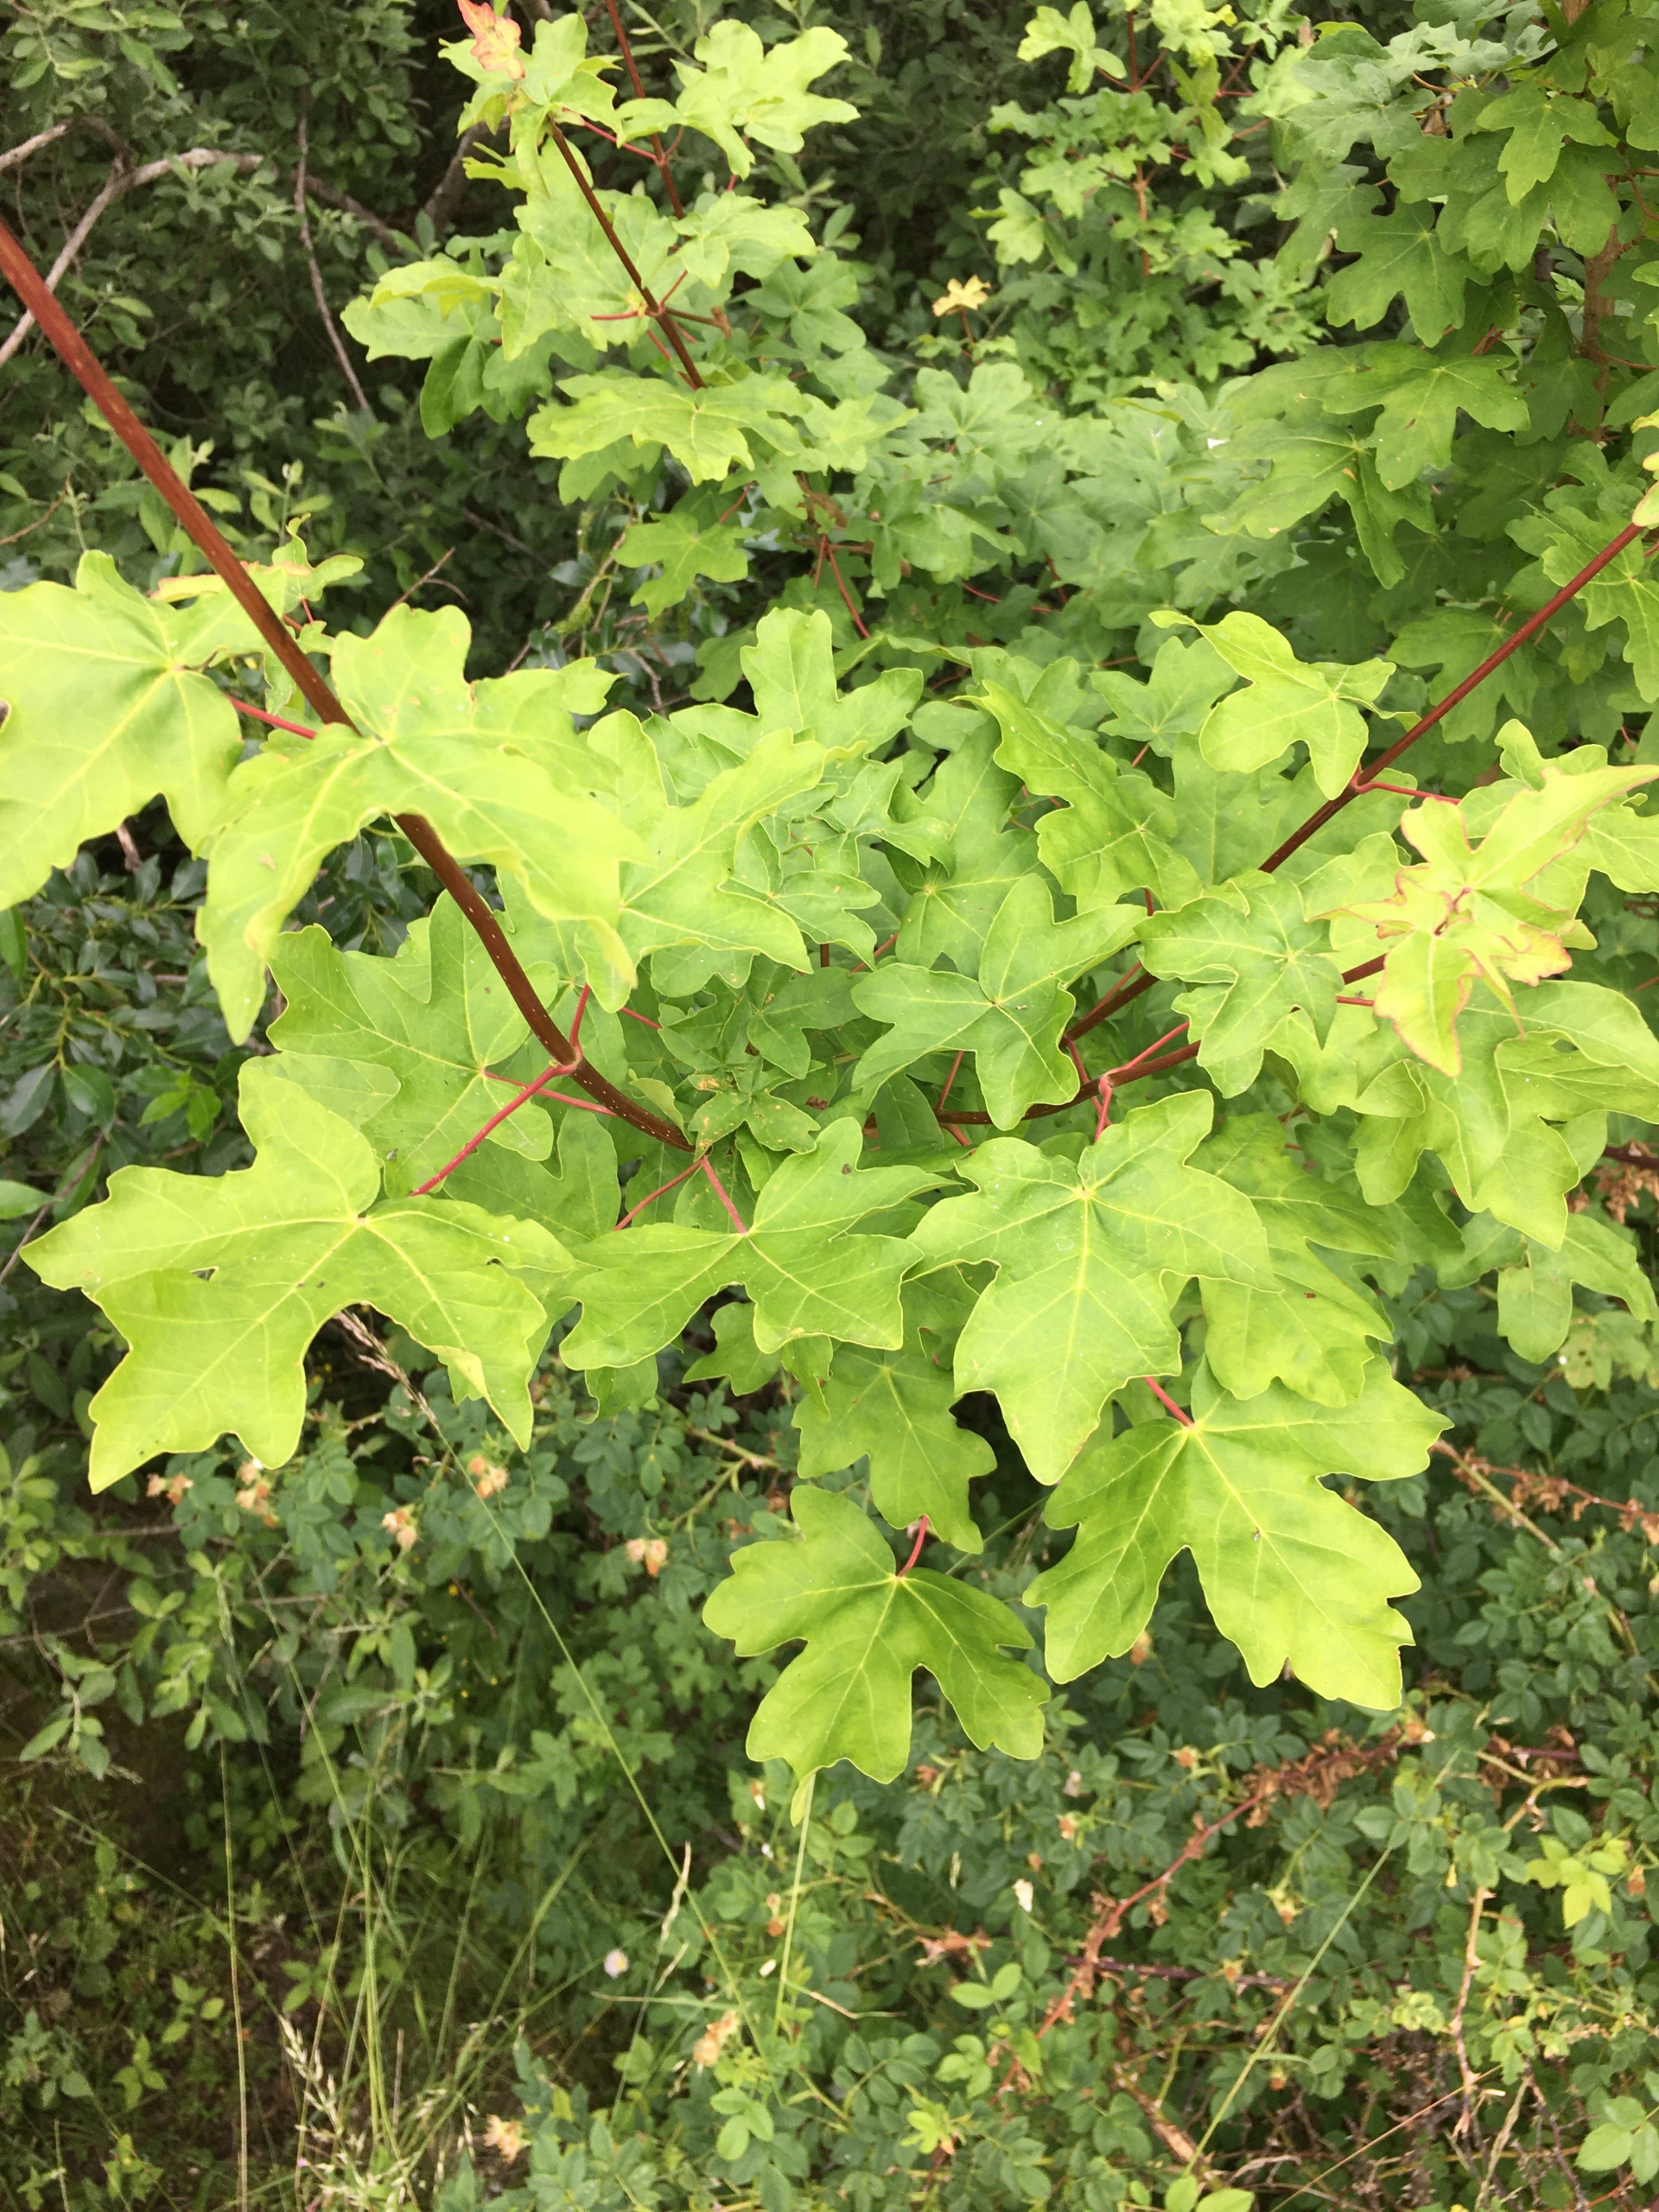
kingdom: Plantae
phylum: Tracheophyta
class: Magnoliopsida
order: Sapindales
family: Sapindaceae
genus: Acer
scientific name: Acer campestre
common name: Navr
